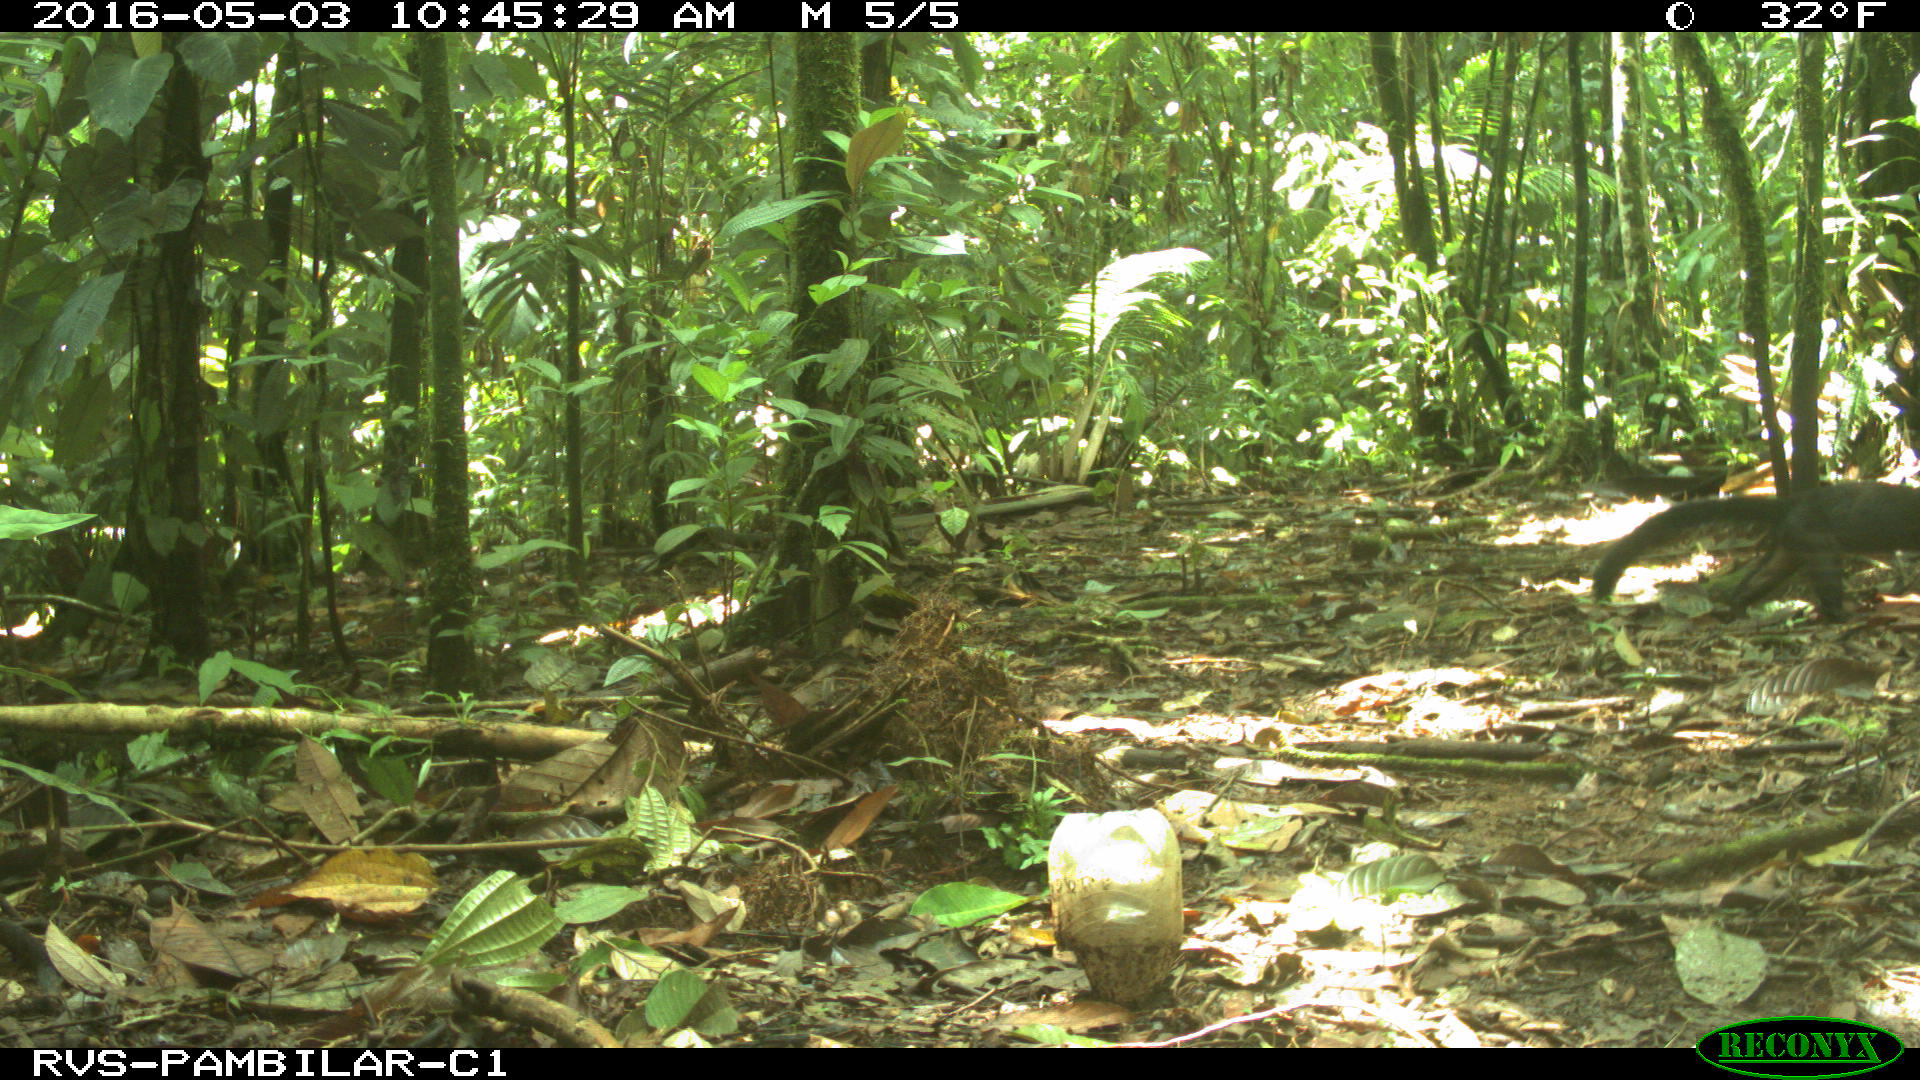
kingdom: Animalia
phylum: Chordata
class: Mammalia
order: Carnivora
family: Mustelidae
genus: Eira
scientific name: Eira barbara
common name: Tayra
